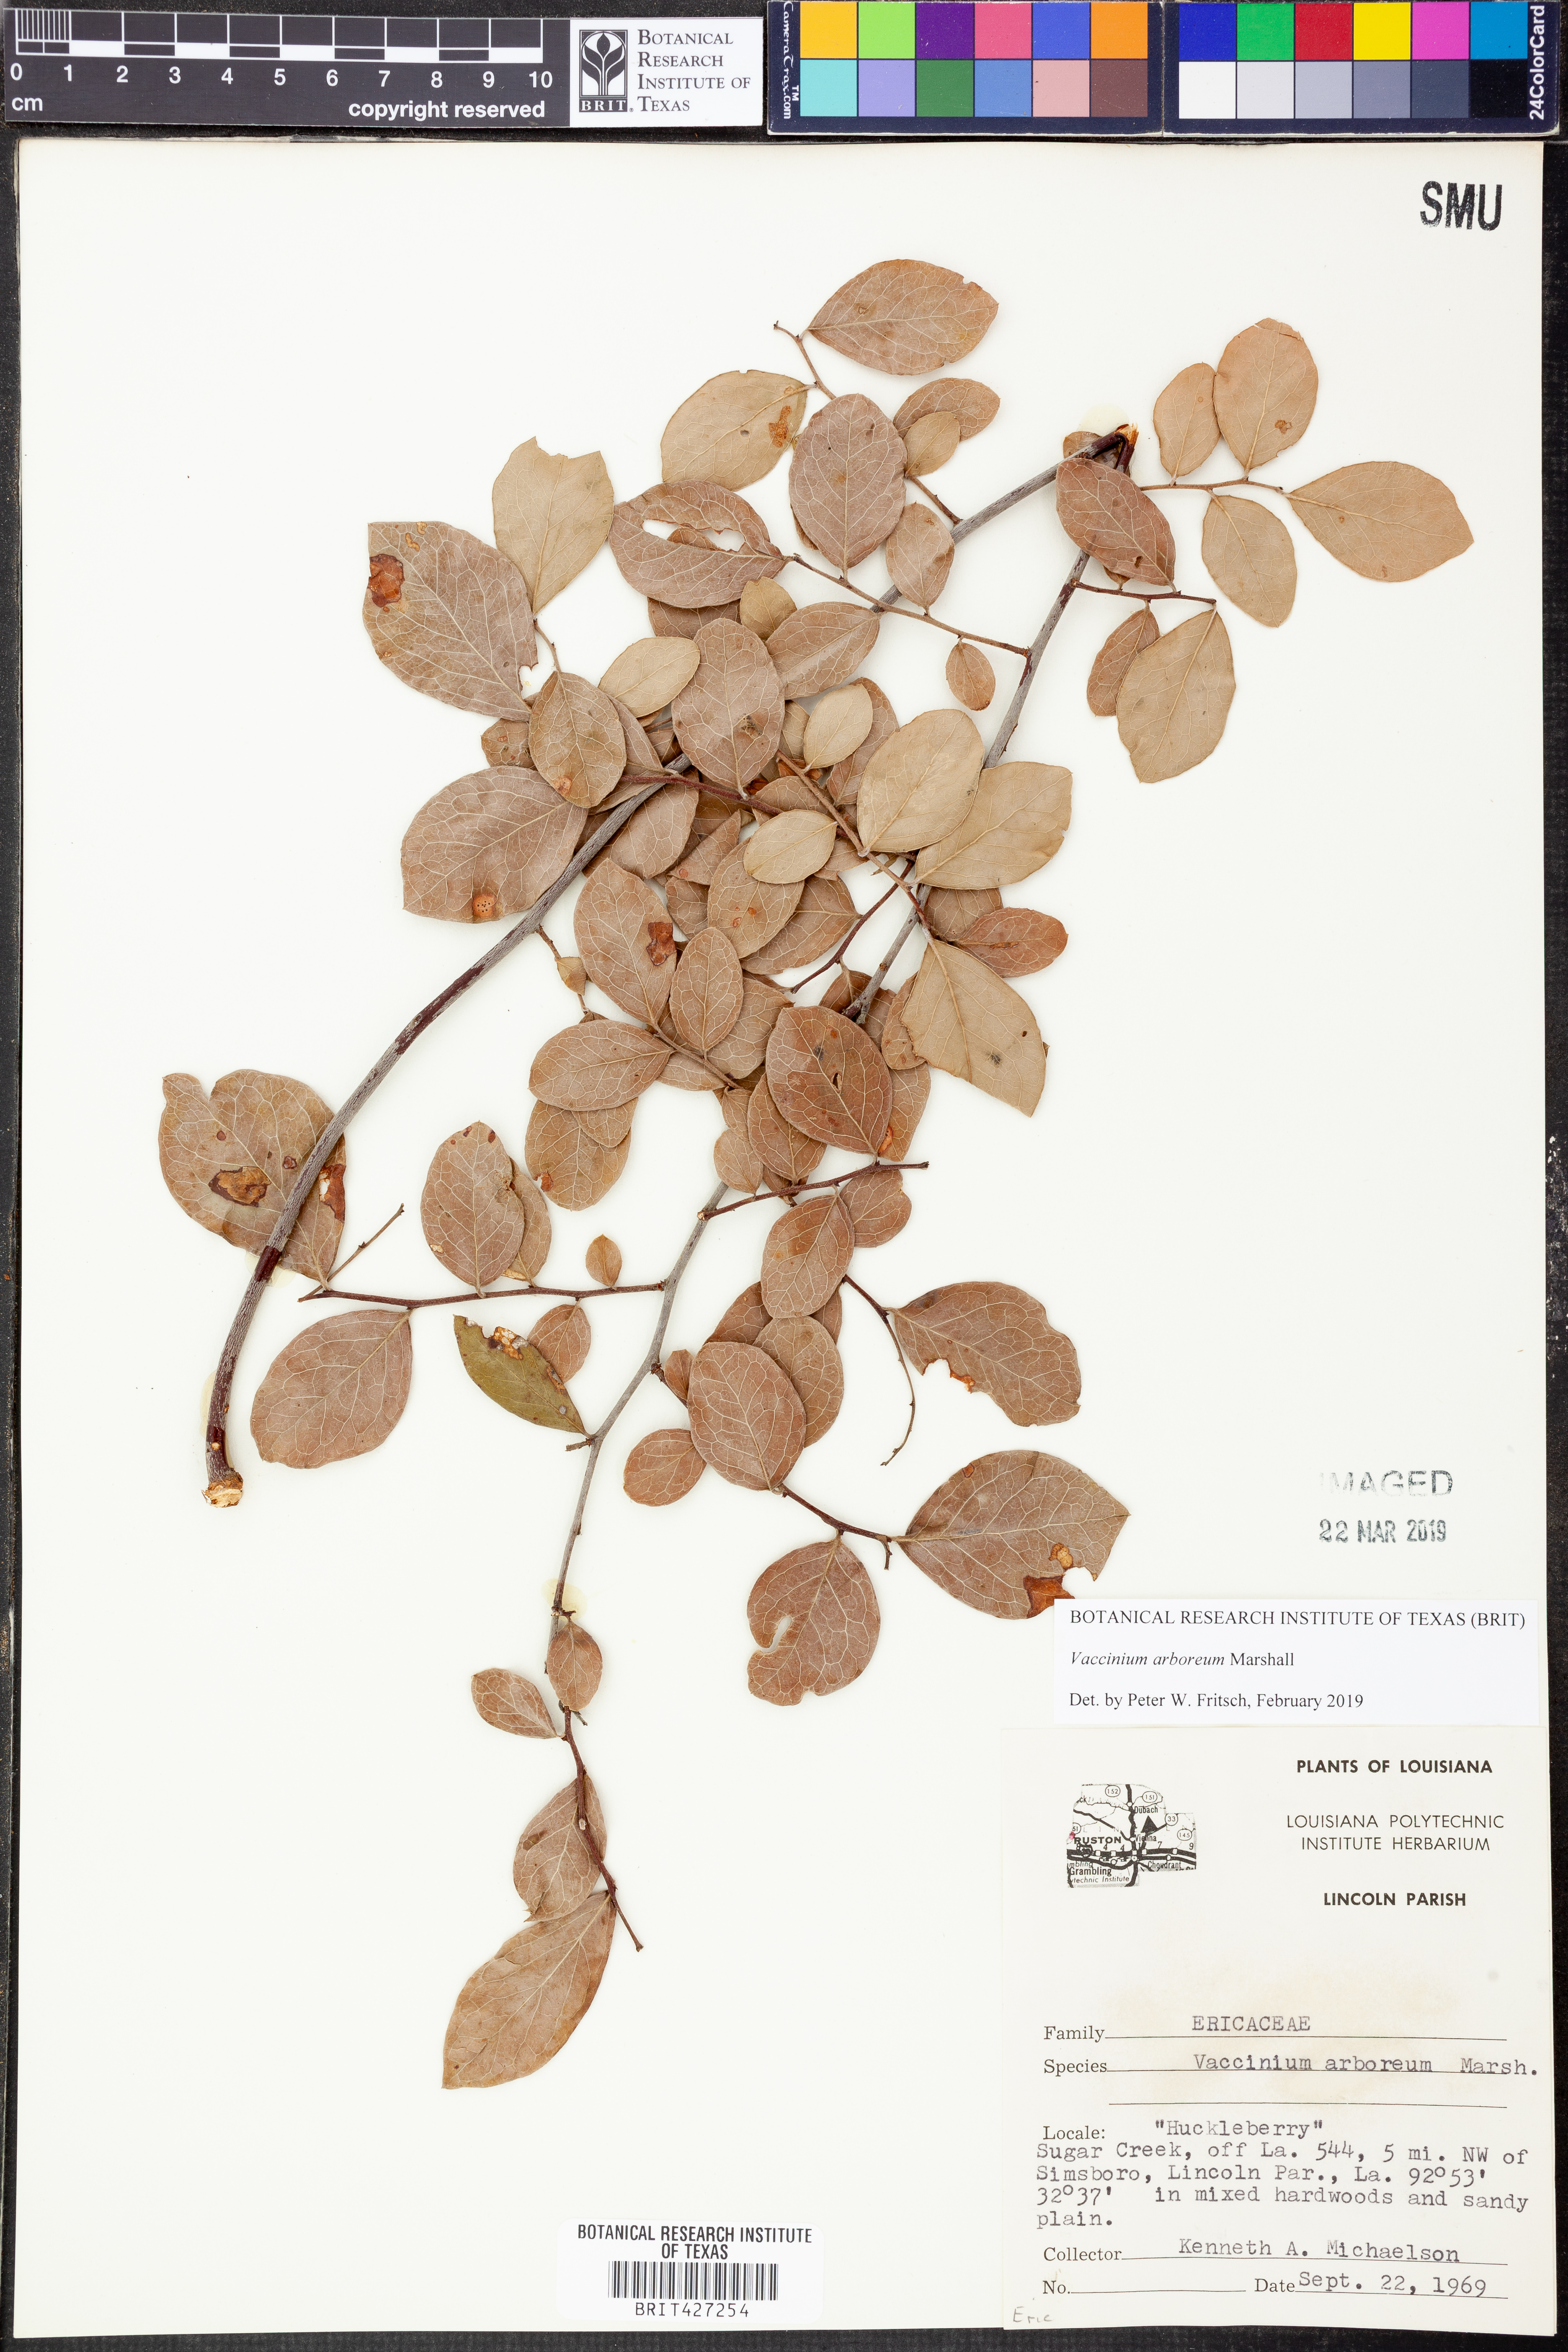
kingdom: Plantae
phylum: Tracheophyta
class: Magnoliopsida
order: Ericales
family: Ericaceae
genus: Vaccinium
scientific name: Vaccinium arboreum
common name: Farkleberry
